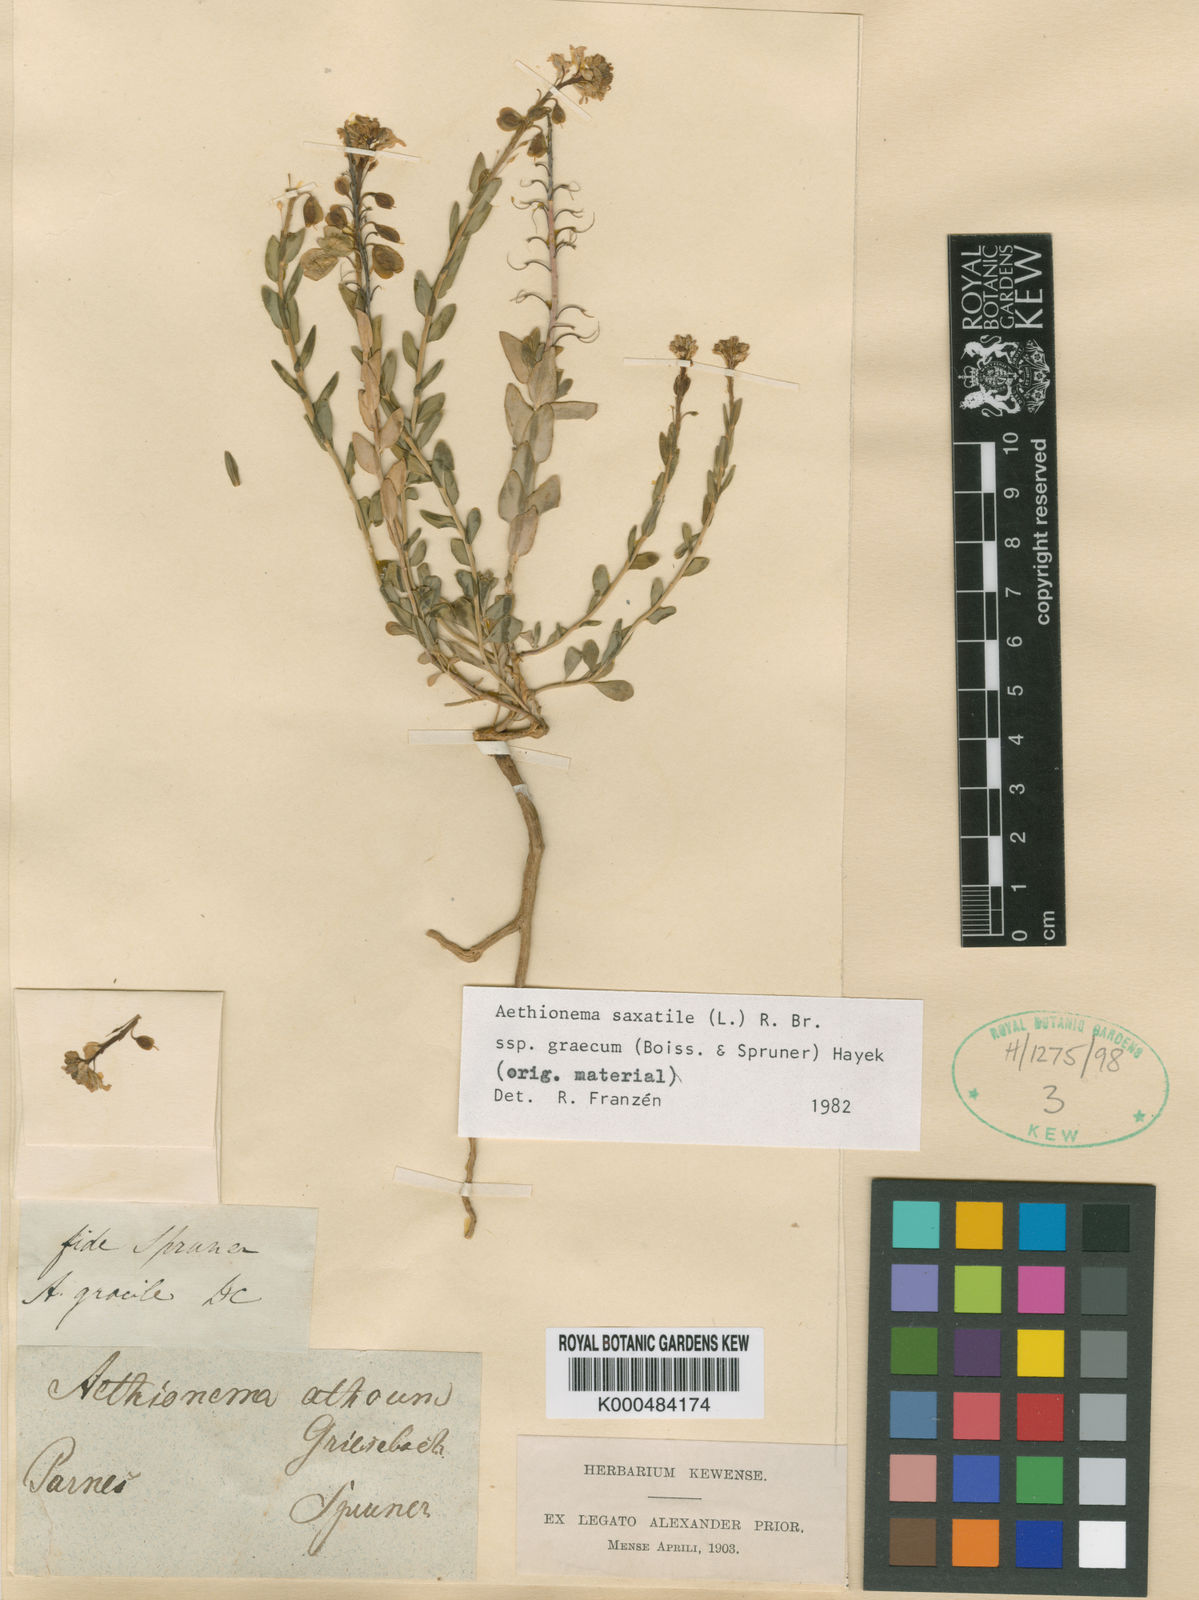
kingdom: Plantae
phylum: Tracheophyta
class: Magnoliopsida
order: Brassicales
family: Brassicaceae
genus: Aethionema
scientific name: Aethionema saxatile
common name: Burnt candytuft
